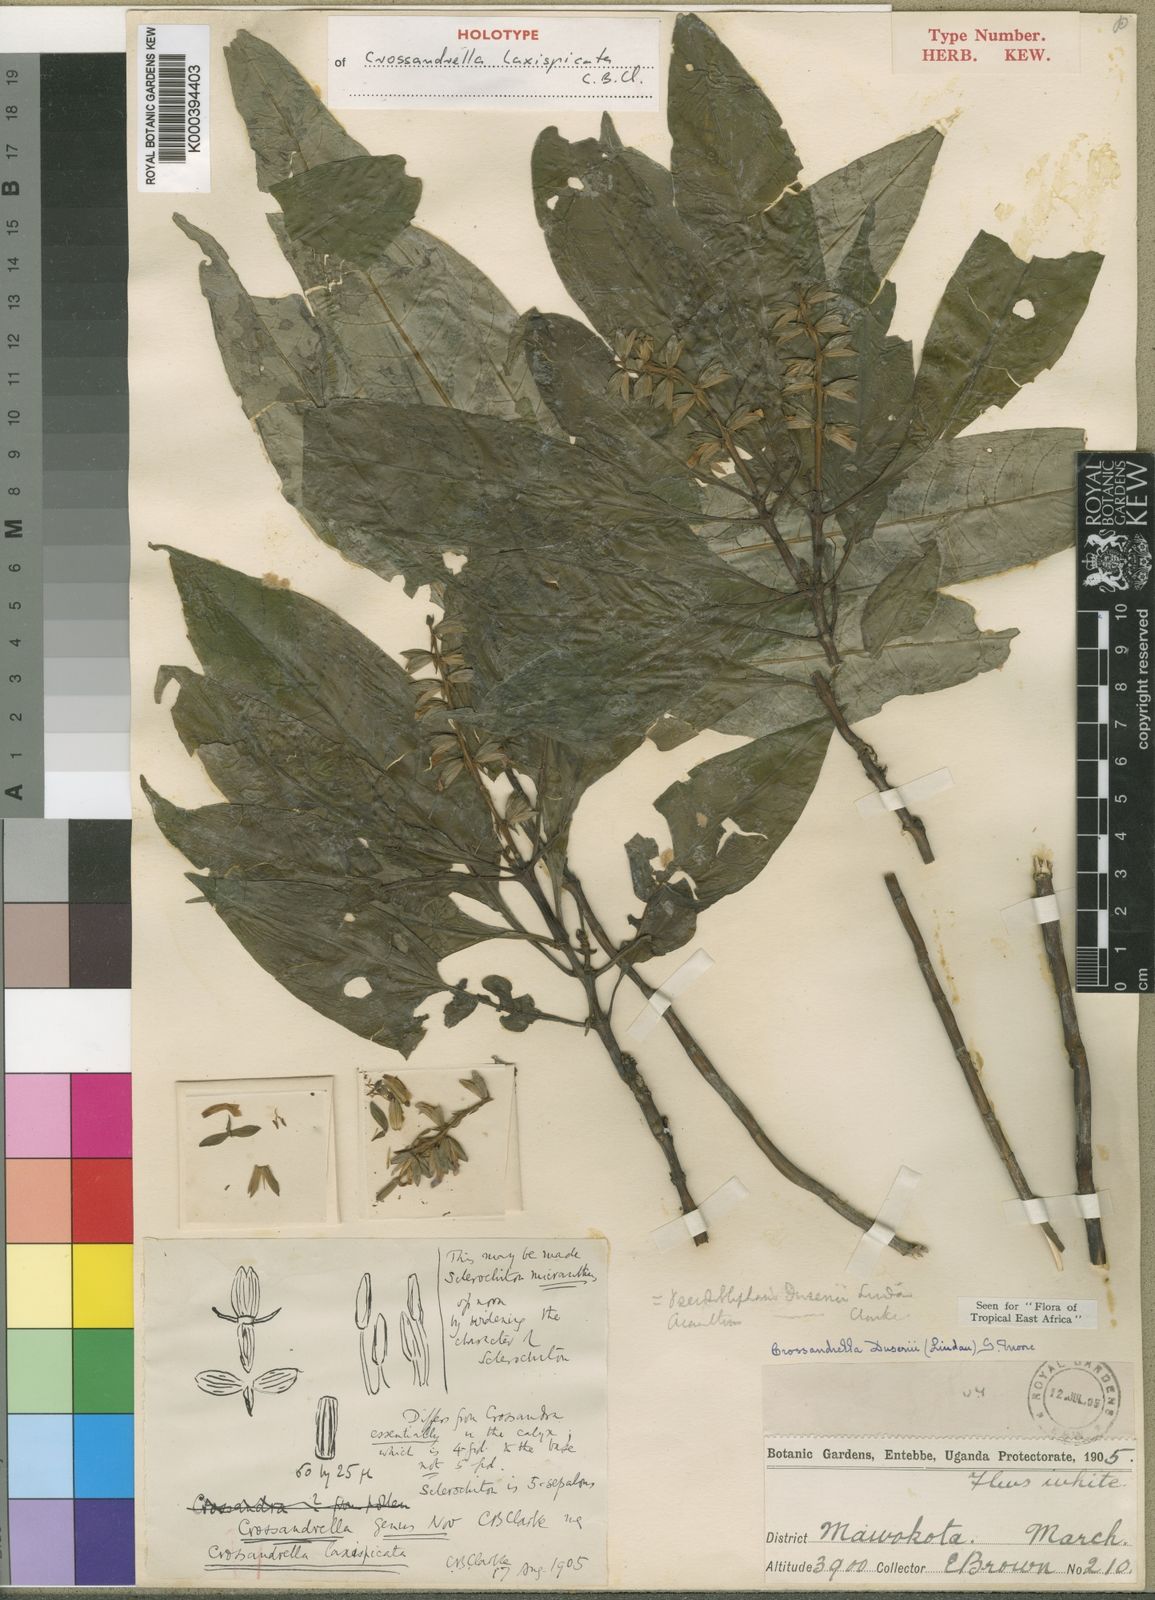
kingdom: Plantae
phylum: Tracheophyta
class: Magnoliopsida
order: Lamiales
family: Acanthaceae
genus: Crossandrella
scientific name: Crossandrella
